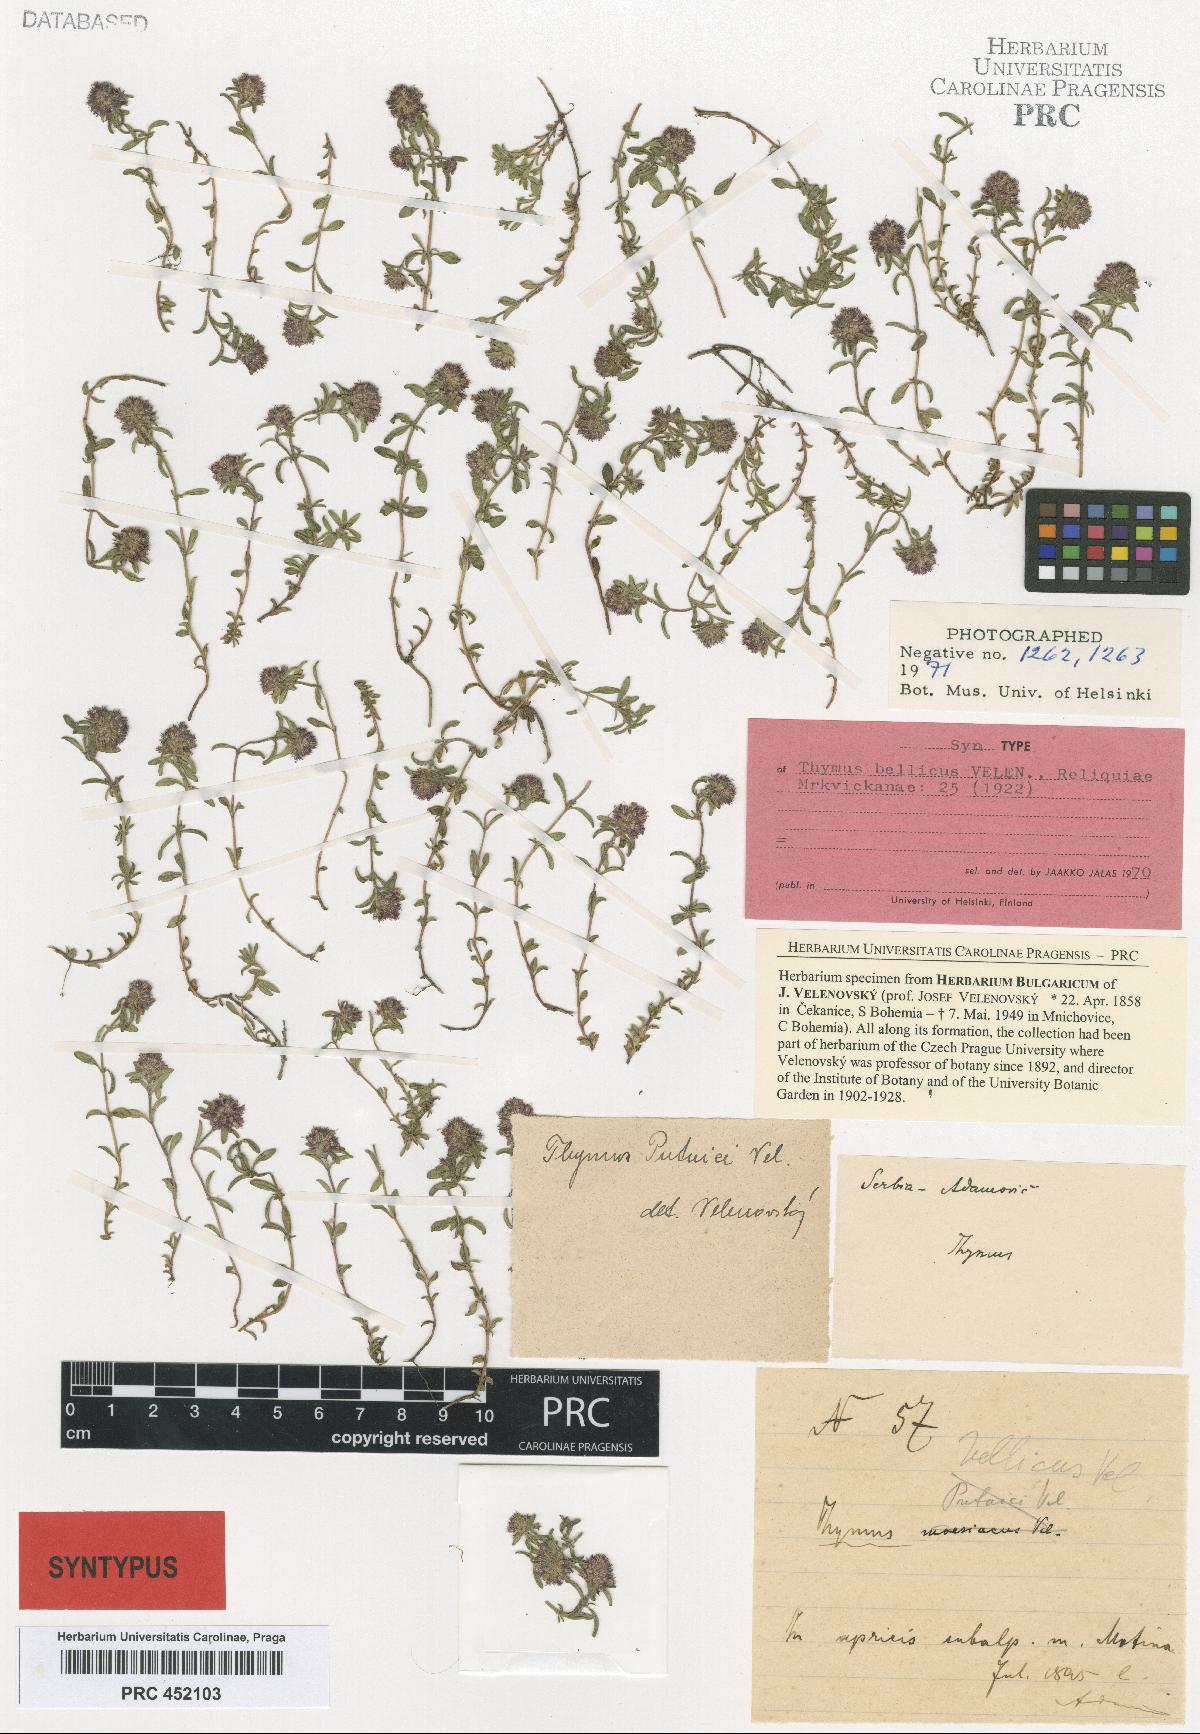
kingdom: Plantae
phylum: Tracheophyta
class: Magnoliopsida
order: Lamiales
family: Lamiaceae
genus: Thymus
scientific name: Thymus longicaulis
